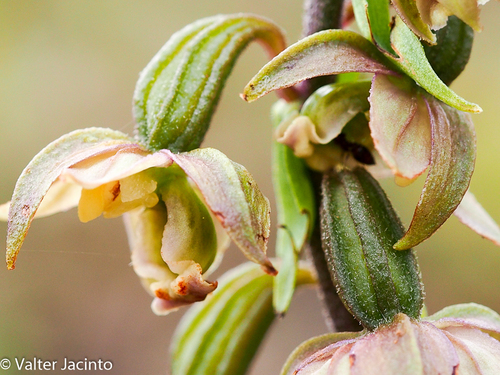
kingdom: Plantae
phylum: Tracheophyta
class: Liliopsida
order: Asparagales
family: Orchidaceae
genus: Epipactis
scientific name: Epipactis helleborine
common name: Broad-leaved helleborine
